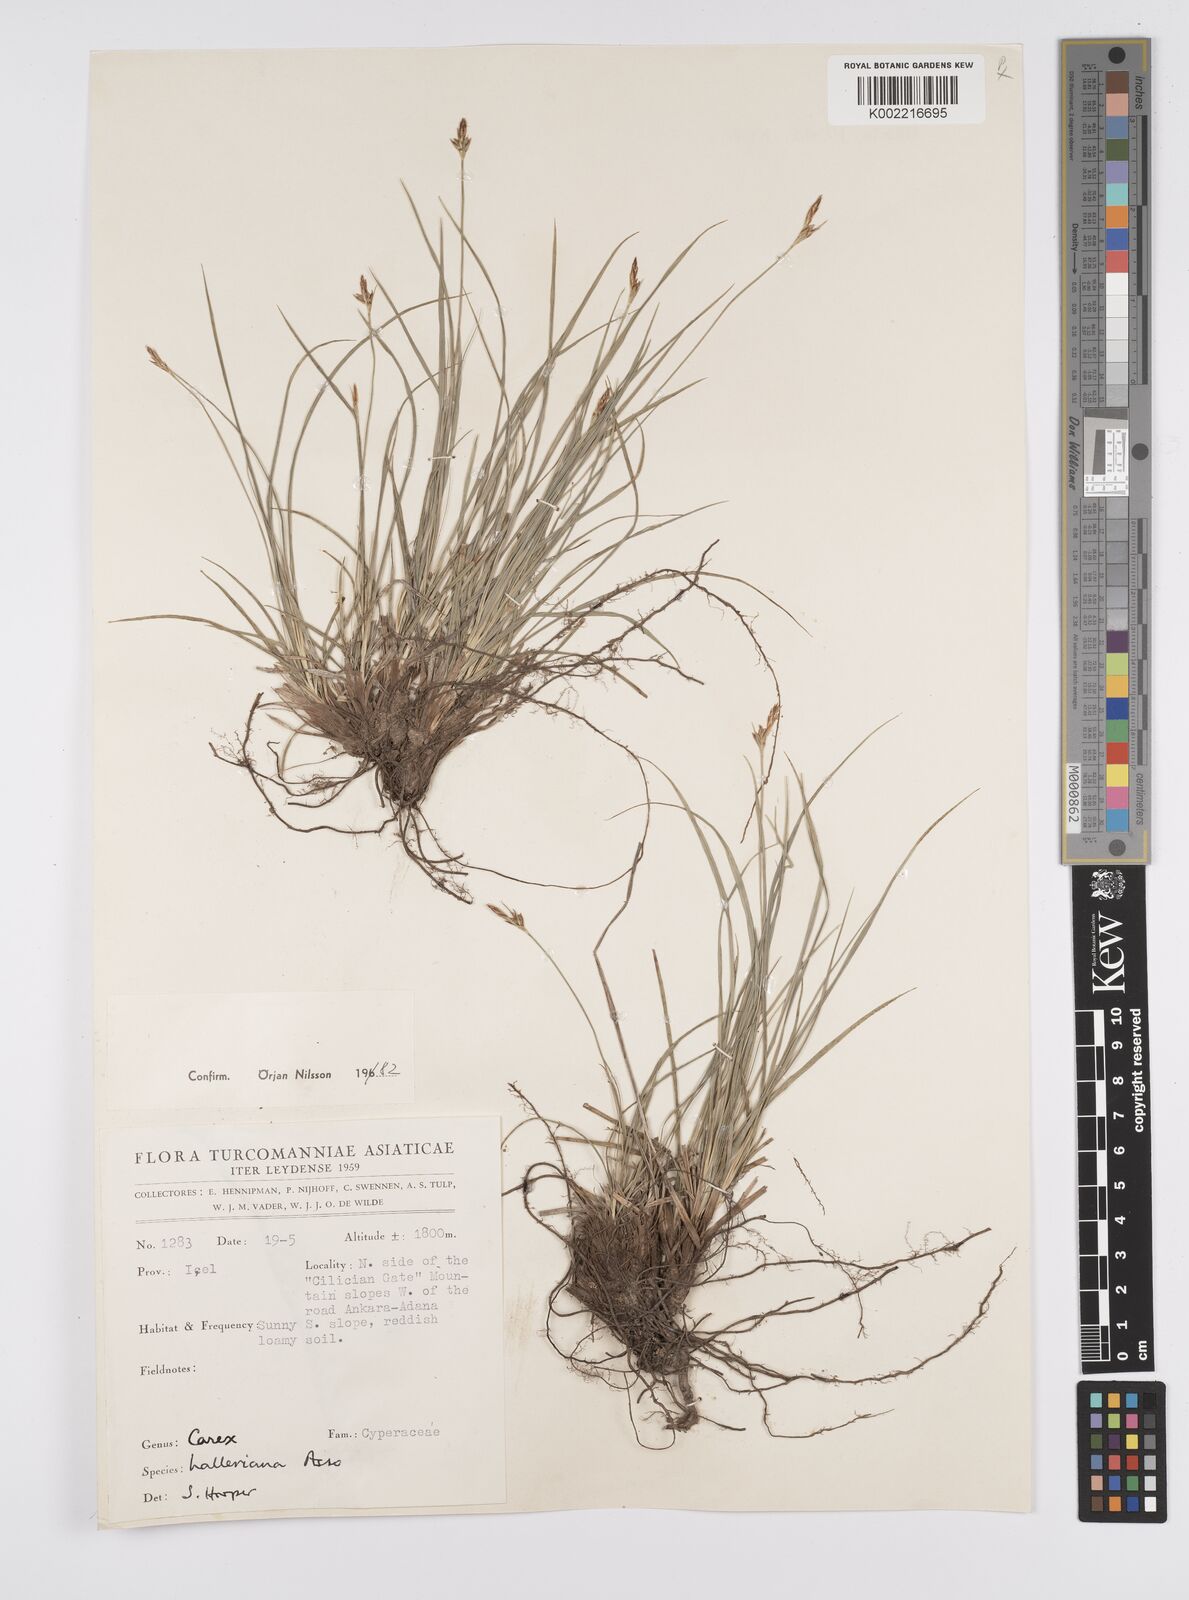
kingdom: Plantae
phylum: Tracheophyta
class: Liliopsida
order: Poales
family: Cyperaceae
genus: Carex
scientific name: Carex halleriana
